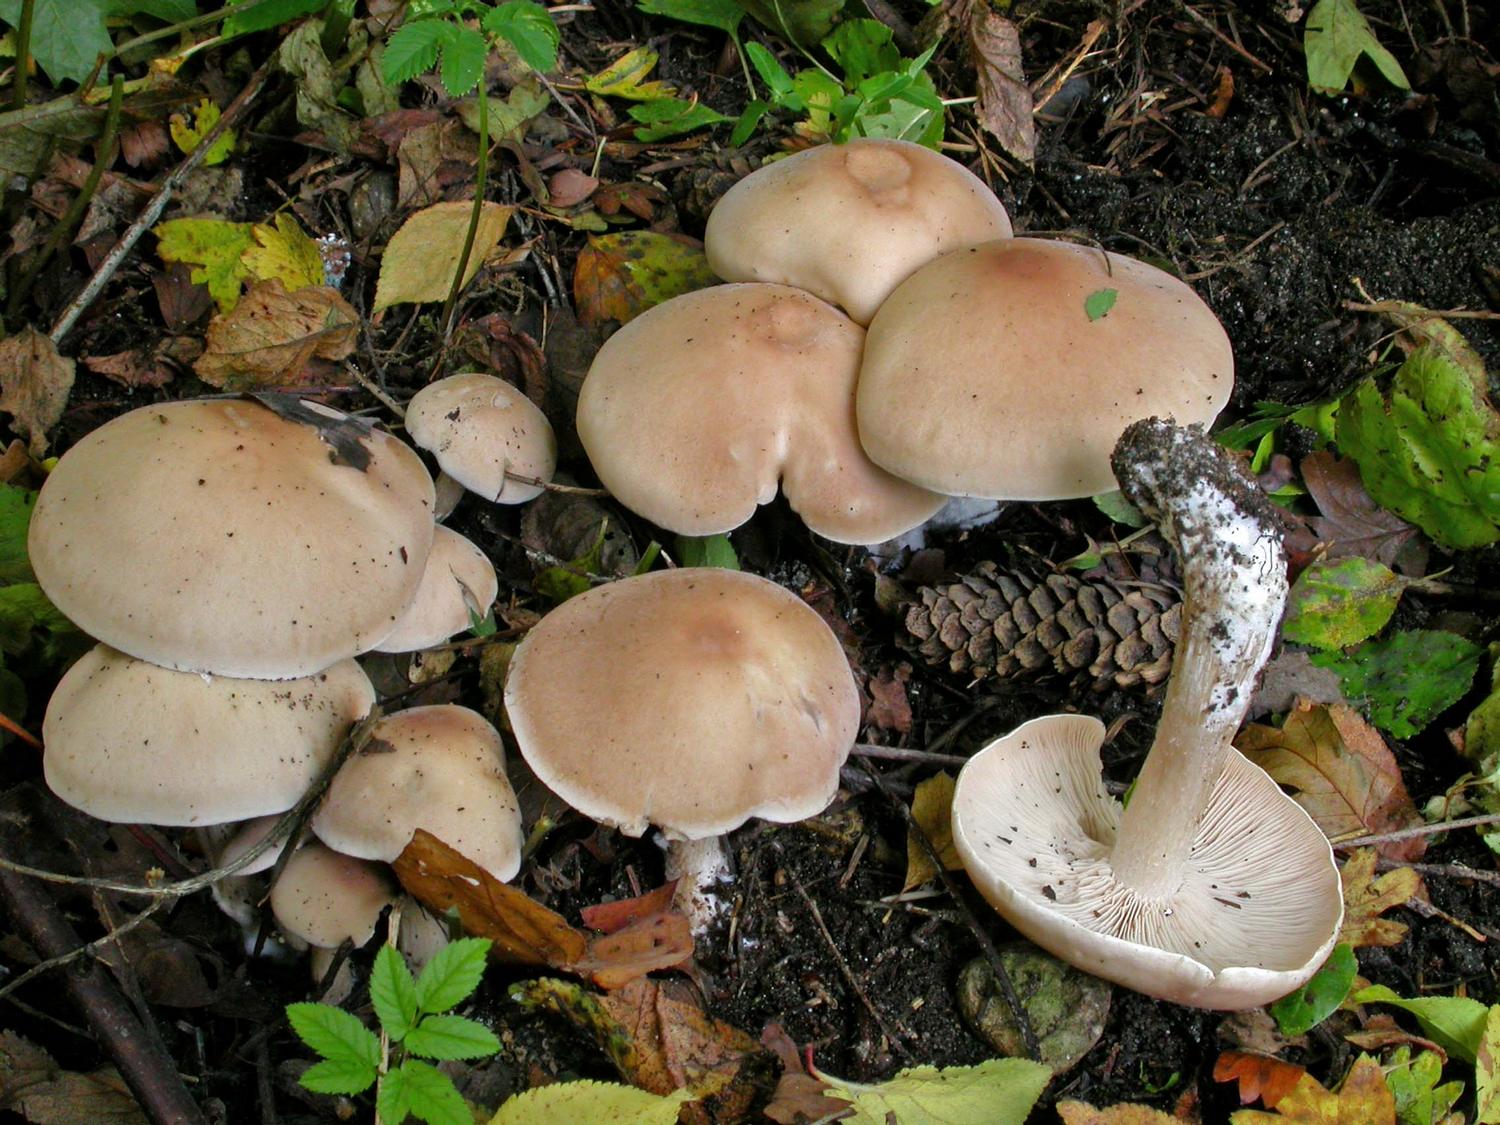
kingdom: Fungi
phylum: Basidiomycota
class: Agaricomycetes
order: Agaricales
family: Tricholomataceae
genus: Lepista
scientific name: Lepista irina
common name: violduftende hekseringshat
